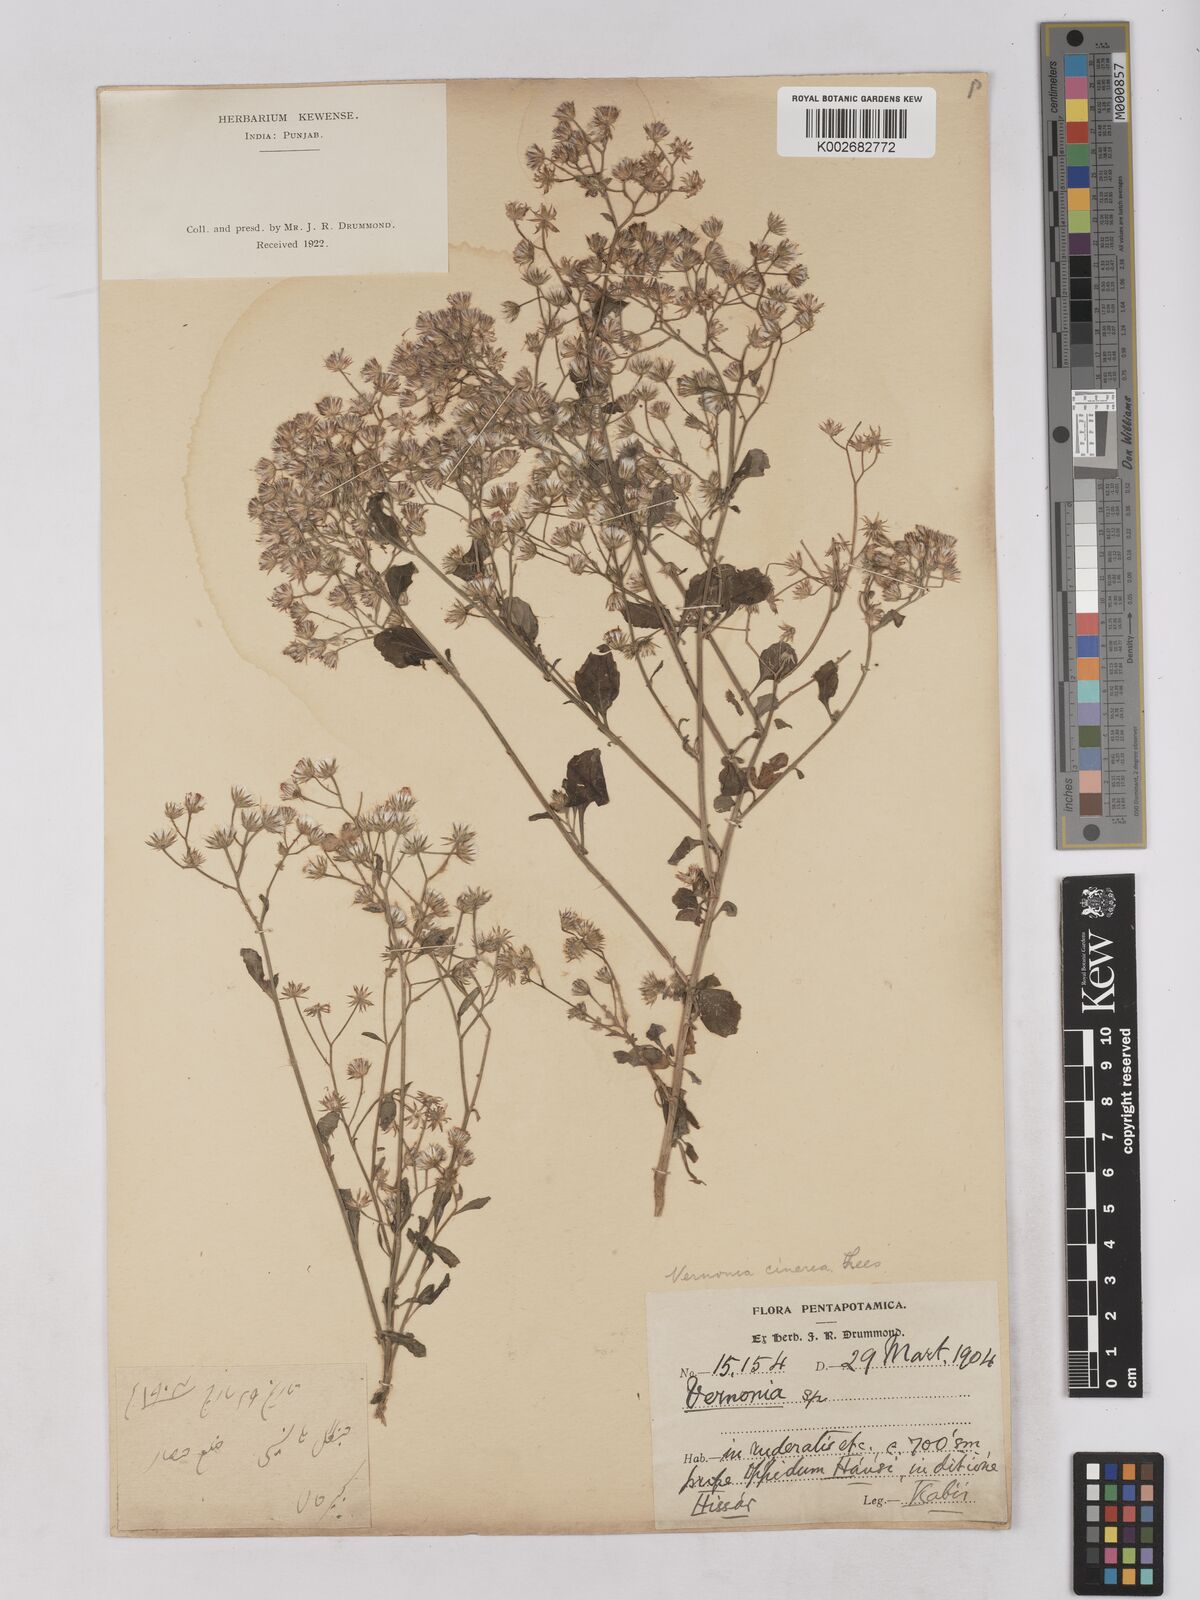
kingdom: Plantae
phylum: Tracheophyta
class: Magnoliopsida
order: Asterales
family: Asteraceae
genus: Cyanthillium
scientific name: Cyanthillium cinereum
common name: Little ironweed
